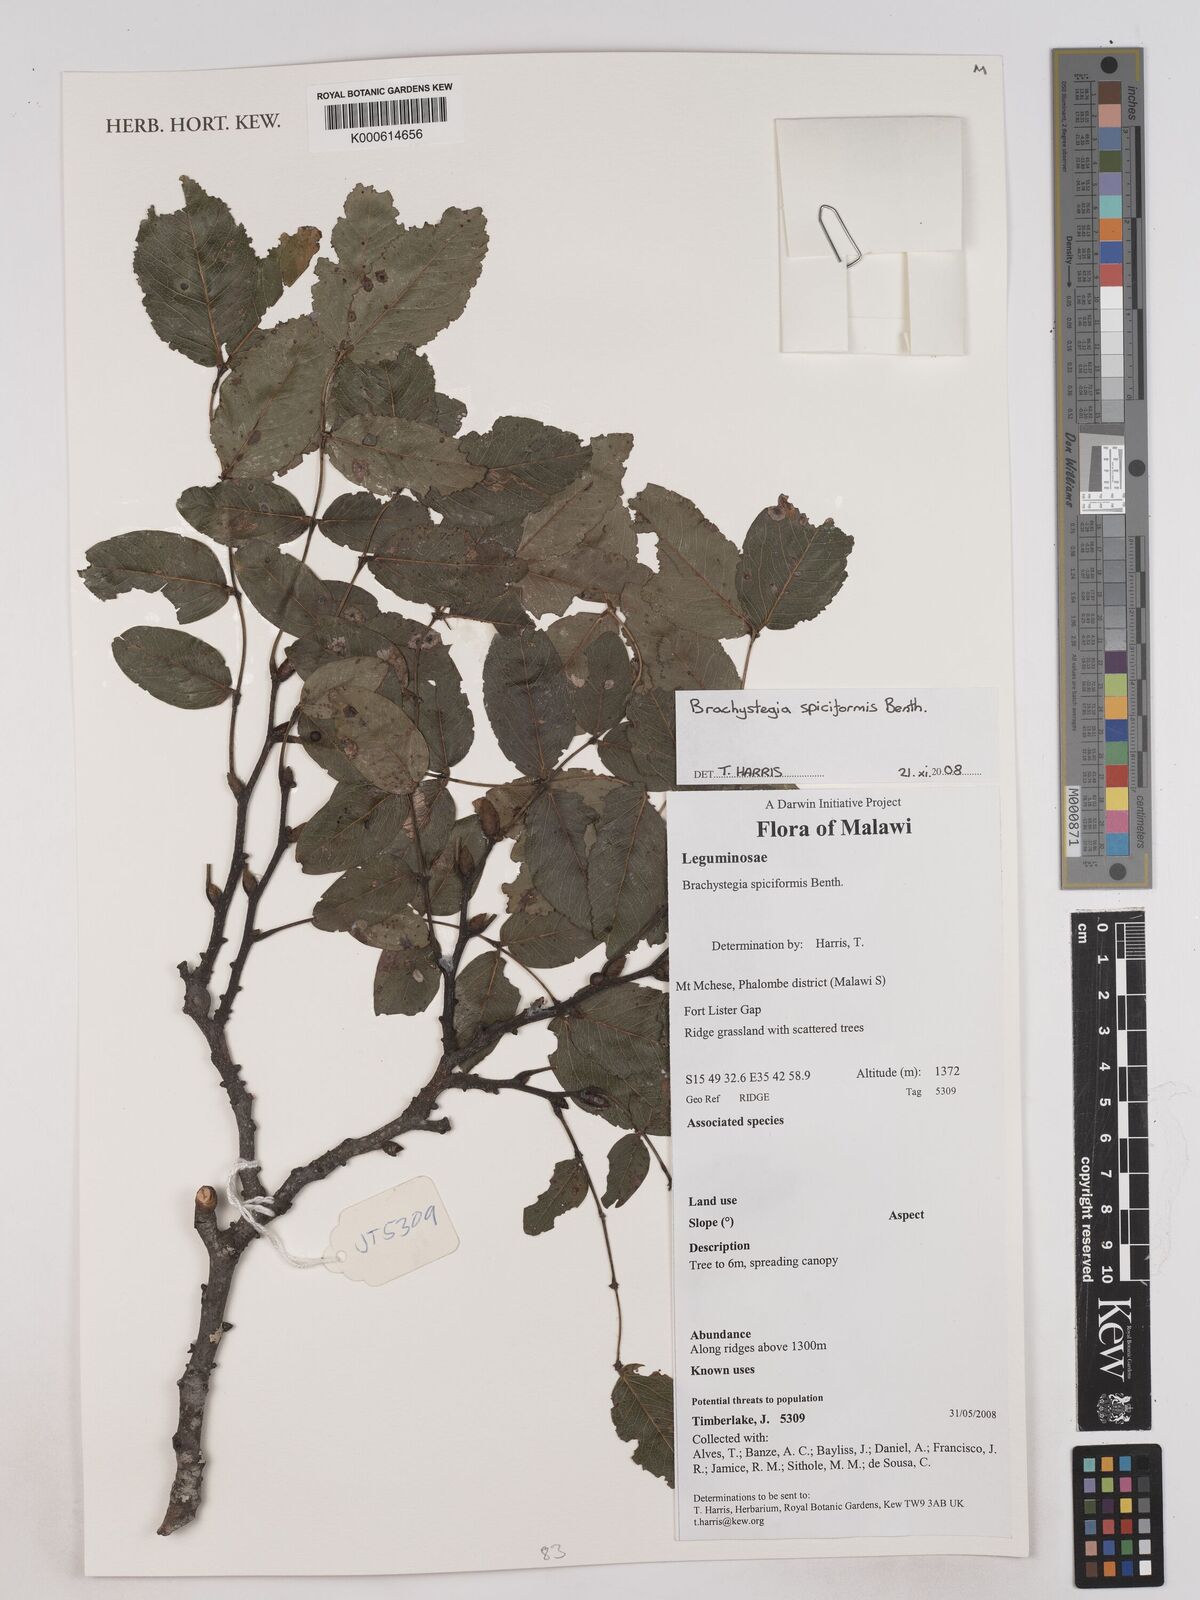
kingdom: Plantae
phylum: Tracheophyta
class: Magnoliopsida
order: Fabales
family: Fabaceae
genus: Brachystegia
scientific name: Brachystegia spiciformis
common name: Zebrawood
